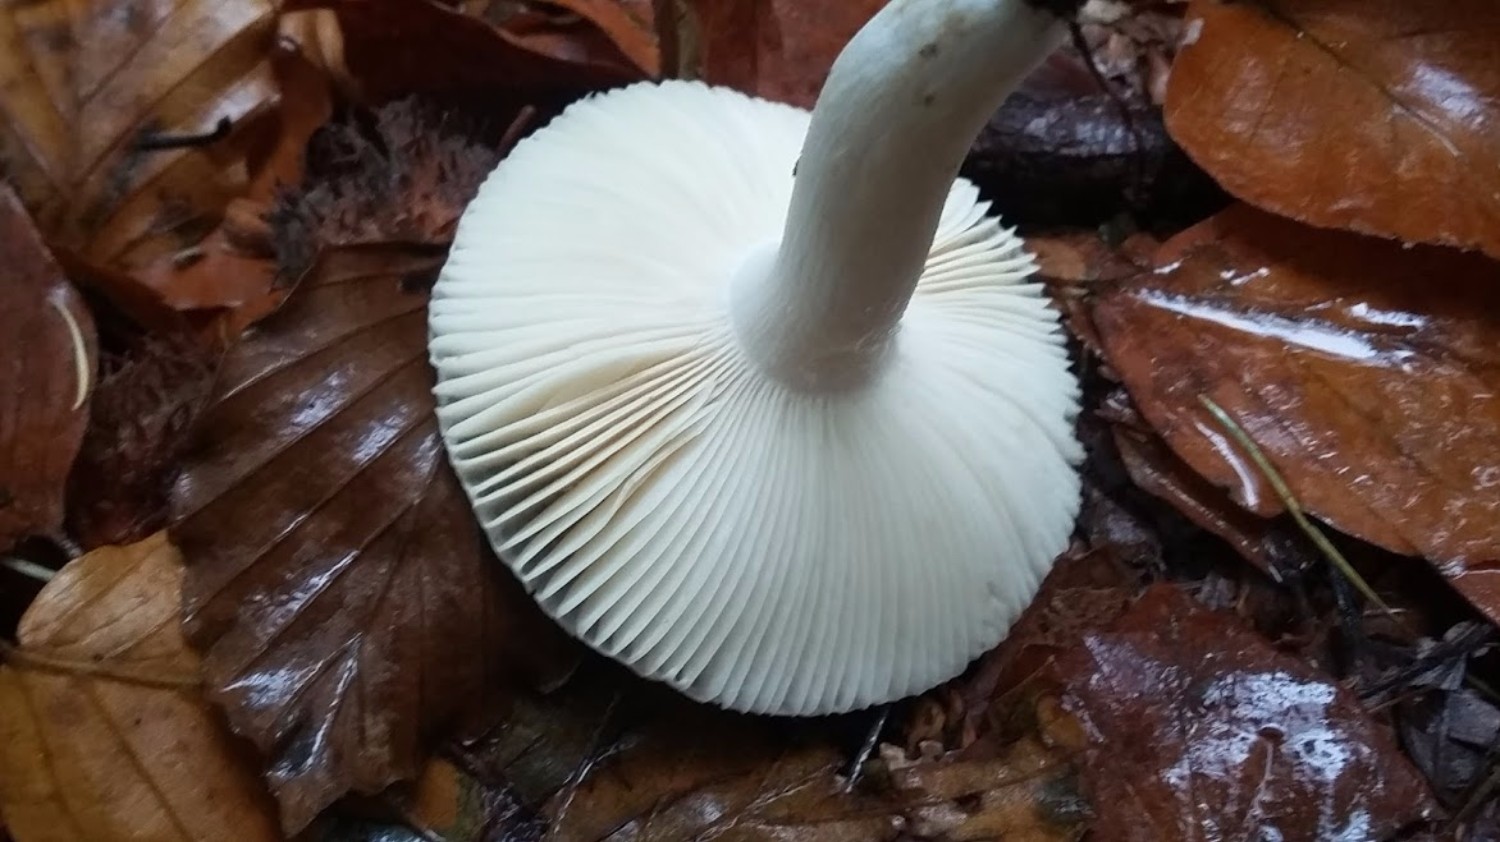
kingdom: Fungi
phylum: Basidiomycota
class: Agaricomycetes
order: Russulales
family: Russulaceae
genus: Russula
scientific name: Russula parazurea
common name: blågrå skørhat
